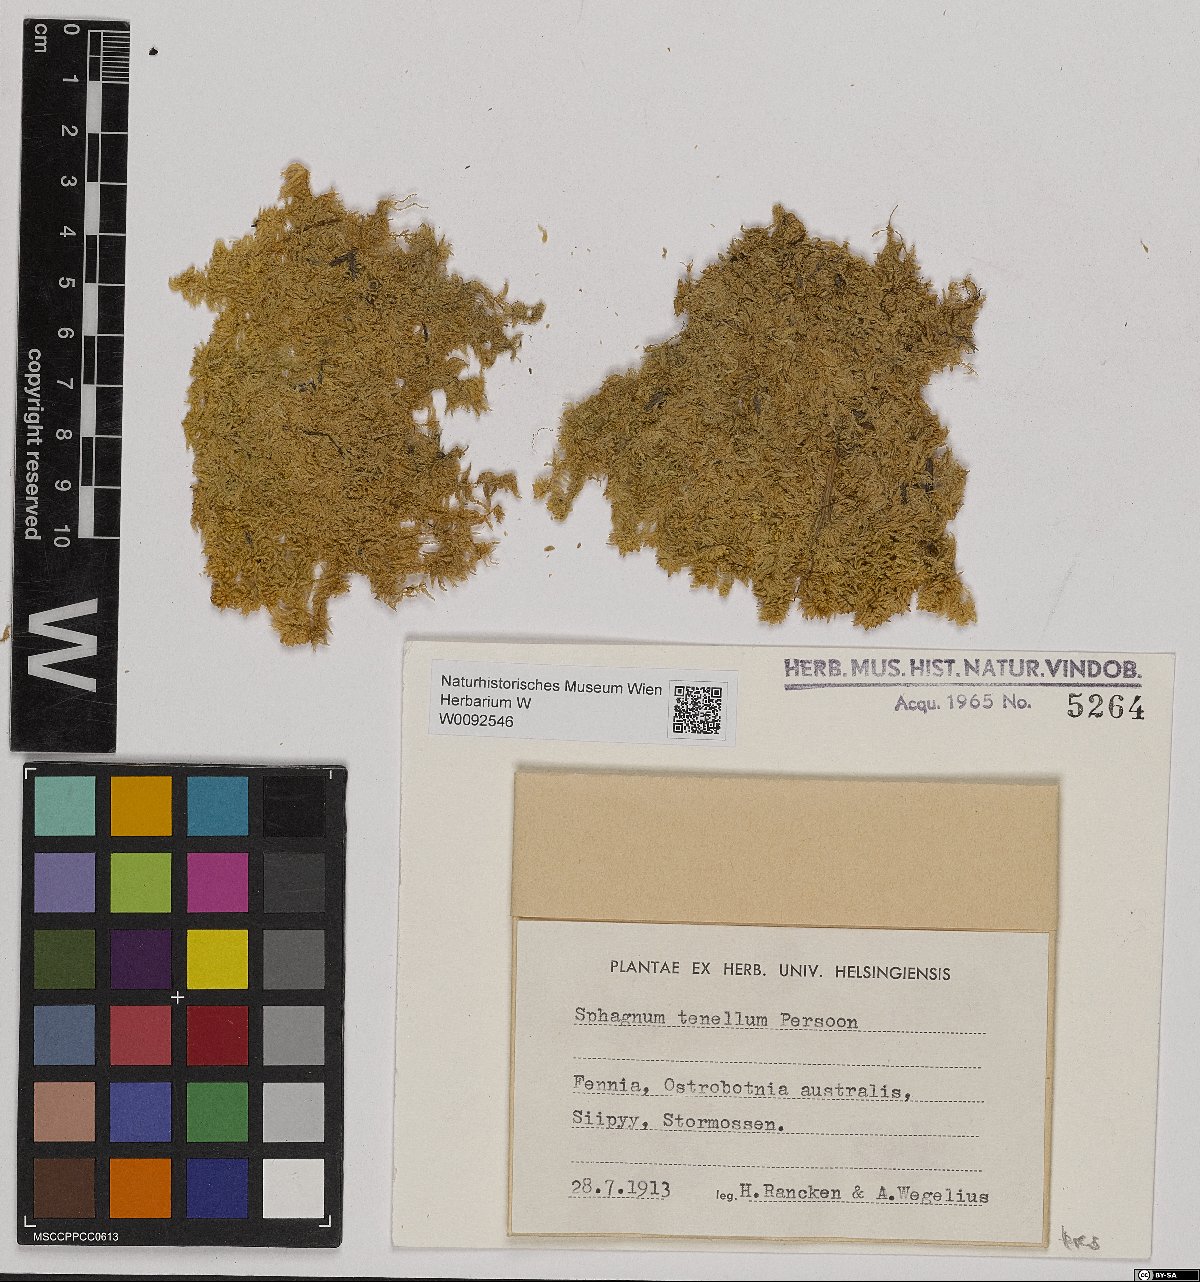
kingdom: Plantae
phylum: Bryophyta
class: Sphagnopsida
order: Sphagnales
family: Sphagnaceae
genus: Sphagnum
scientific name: Sphagnum teres
